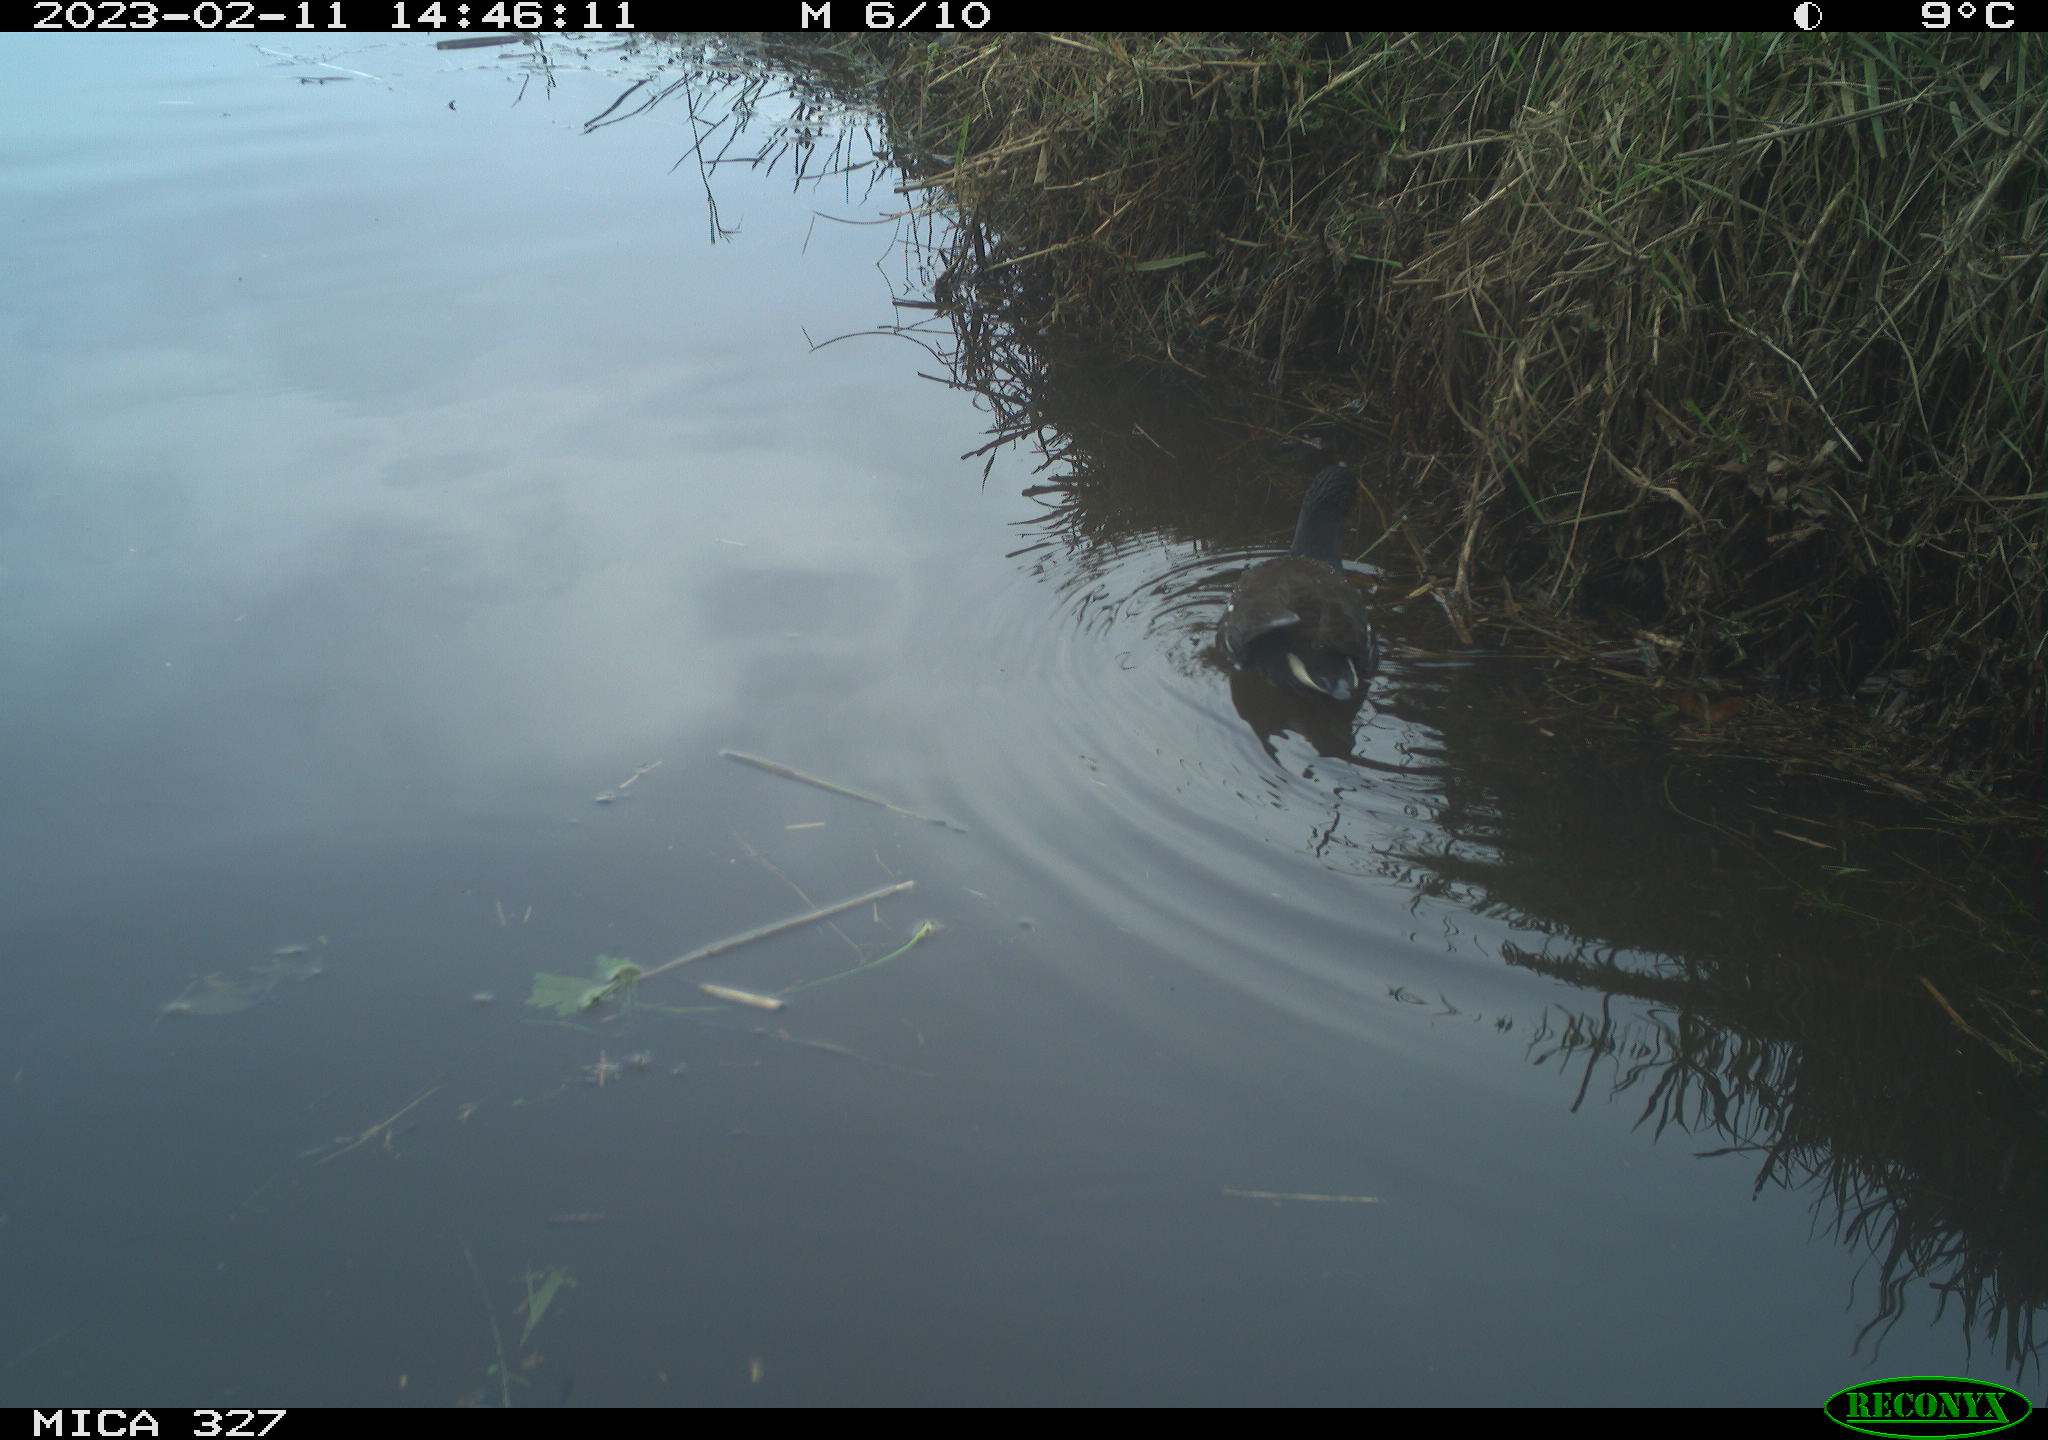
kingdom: Animalia
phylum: Chordata
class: Aves
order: Gruiformes
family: Rallidae
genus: Gallinula
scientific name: Gallinula chloropus
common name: Common moorhen
